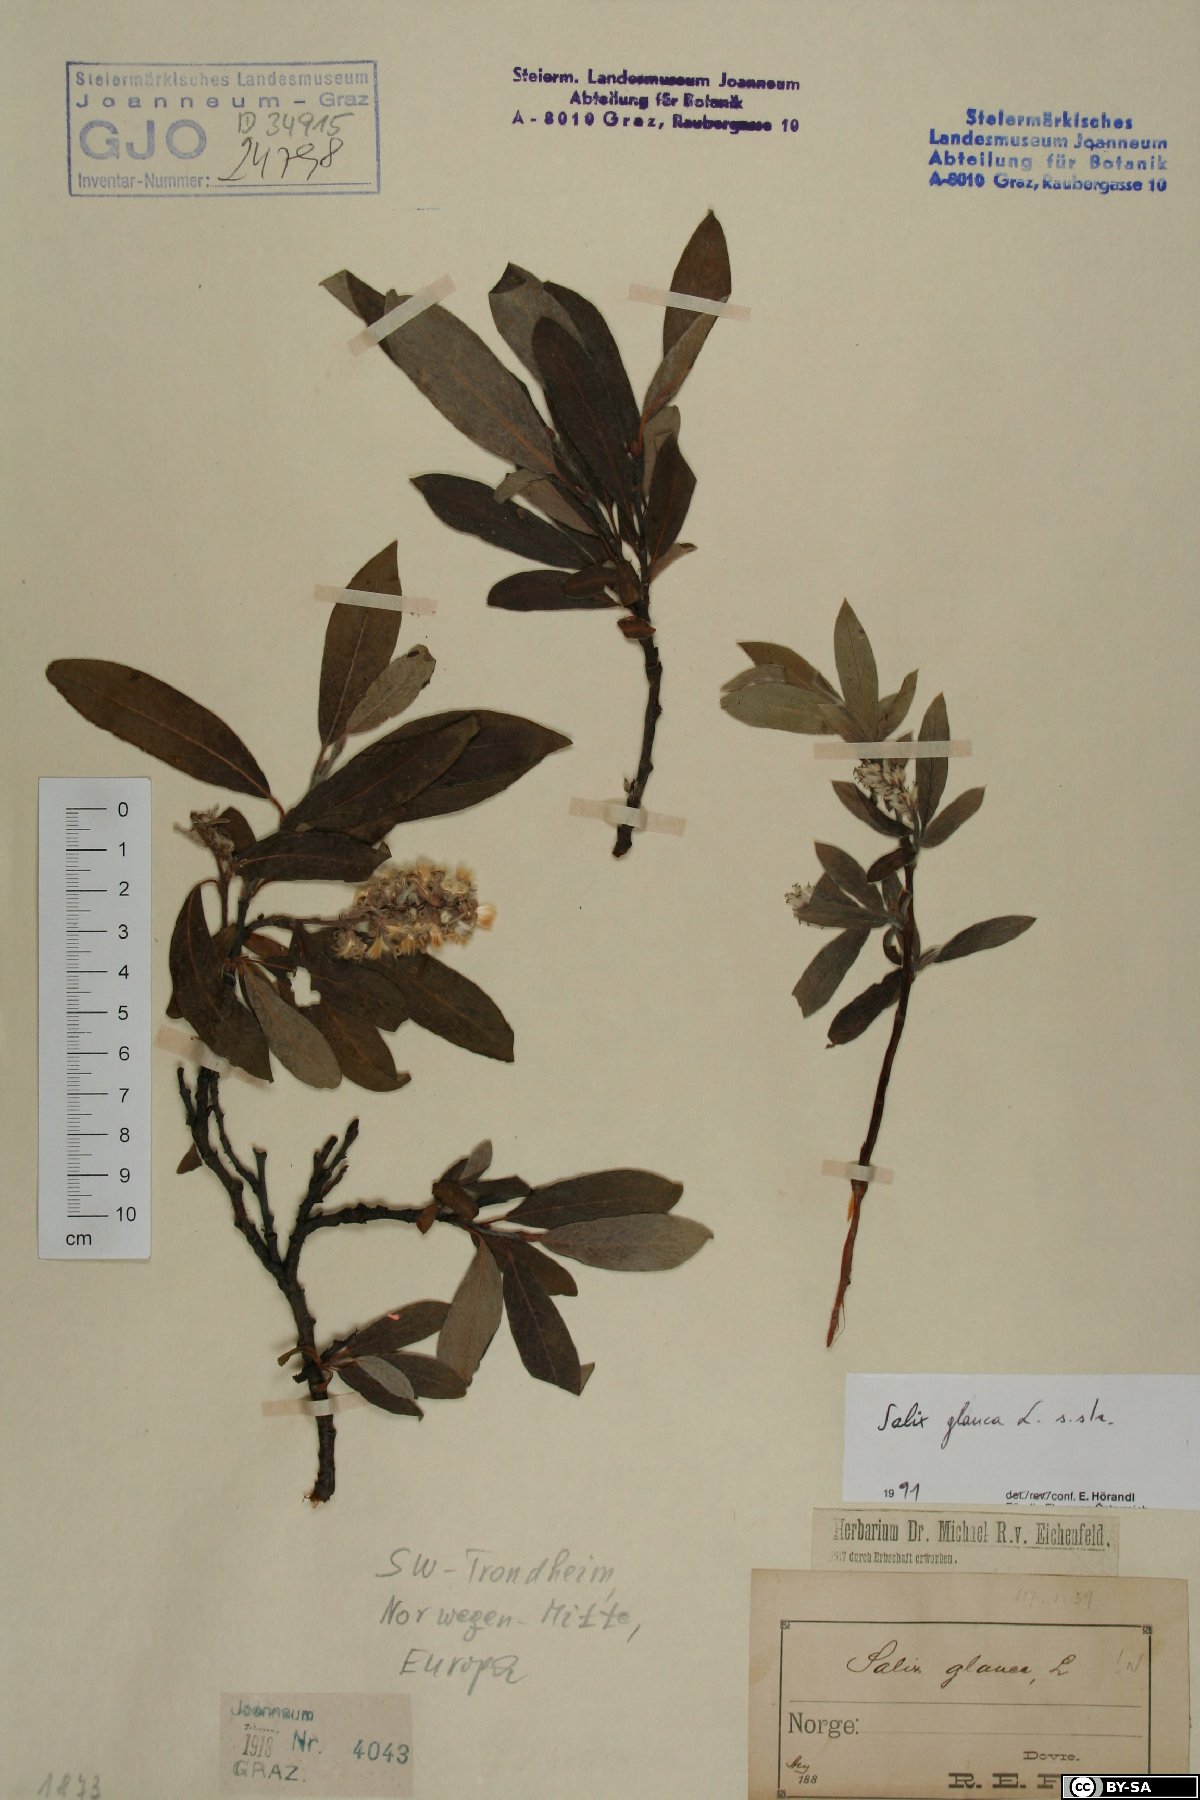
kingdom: Plantae
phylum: Tracheophyta
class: Magnoliopsida
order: Malpighiales
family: Salicaceae
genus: Salix
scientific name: Salix glauca
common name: Glaucous willow
